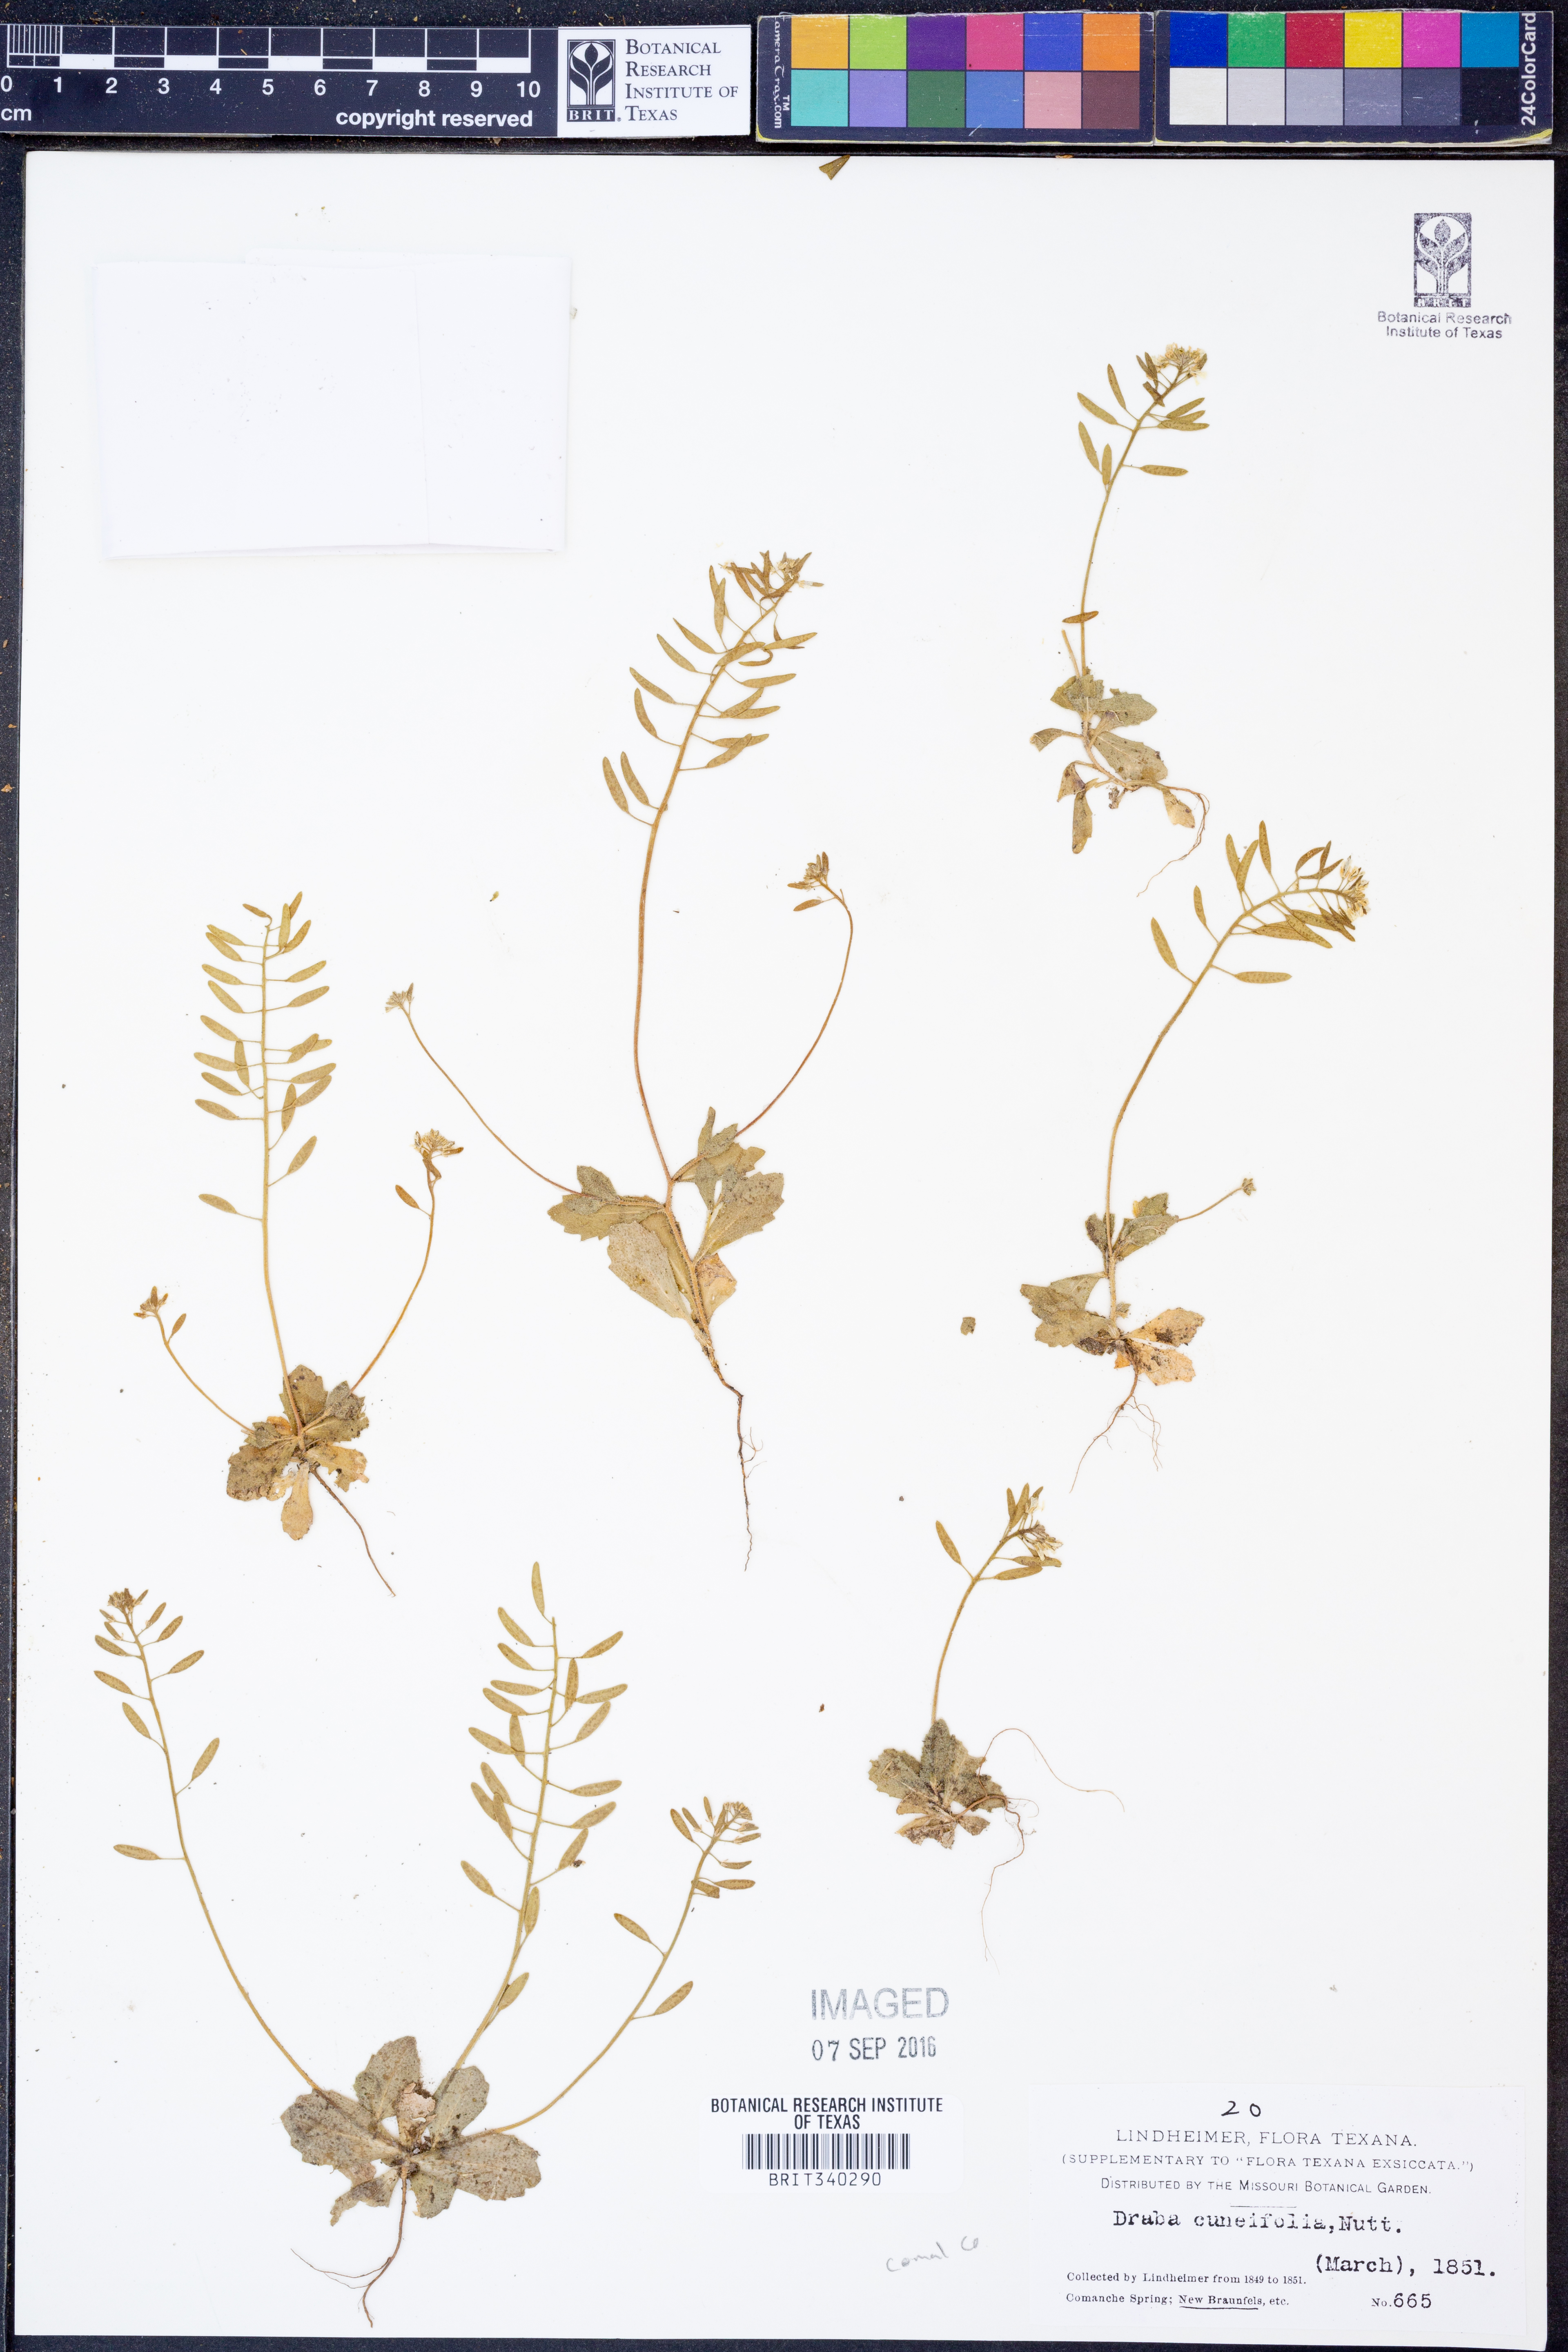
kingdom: Plantae
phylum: Tracheophyta
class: Magnoliopsida
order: Brassicales
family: Brassicaceae
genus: Tomostima
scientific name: Tomostima cuneifolia
